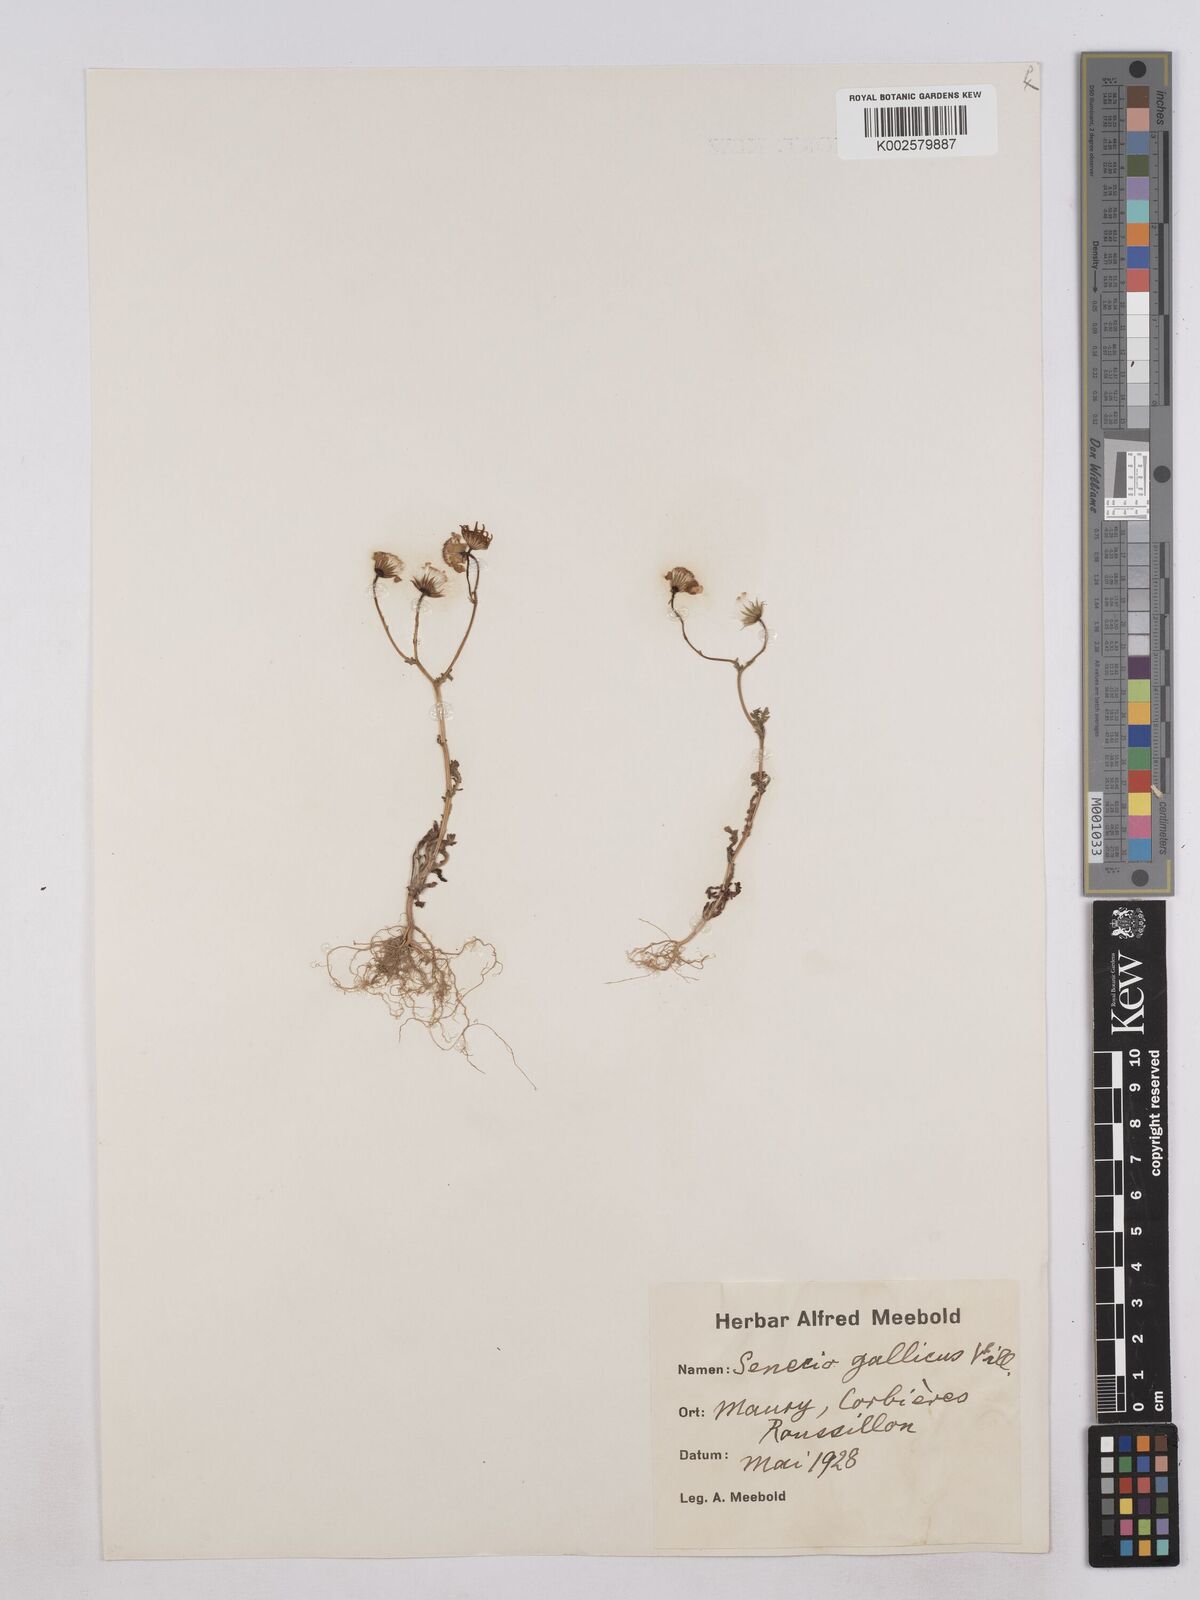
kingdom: Plantae
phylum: Tracheophyta
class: Magnoliopsida
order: Asterales
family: Asteraceae
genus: Senecio
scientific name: Senecio gallicus
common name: French groundsel
